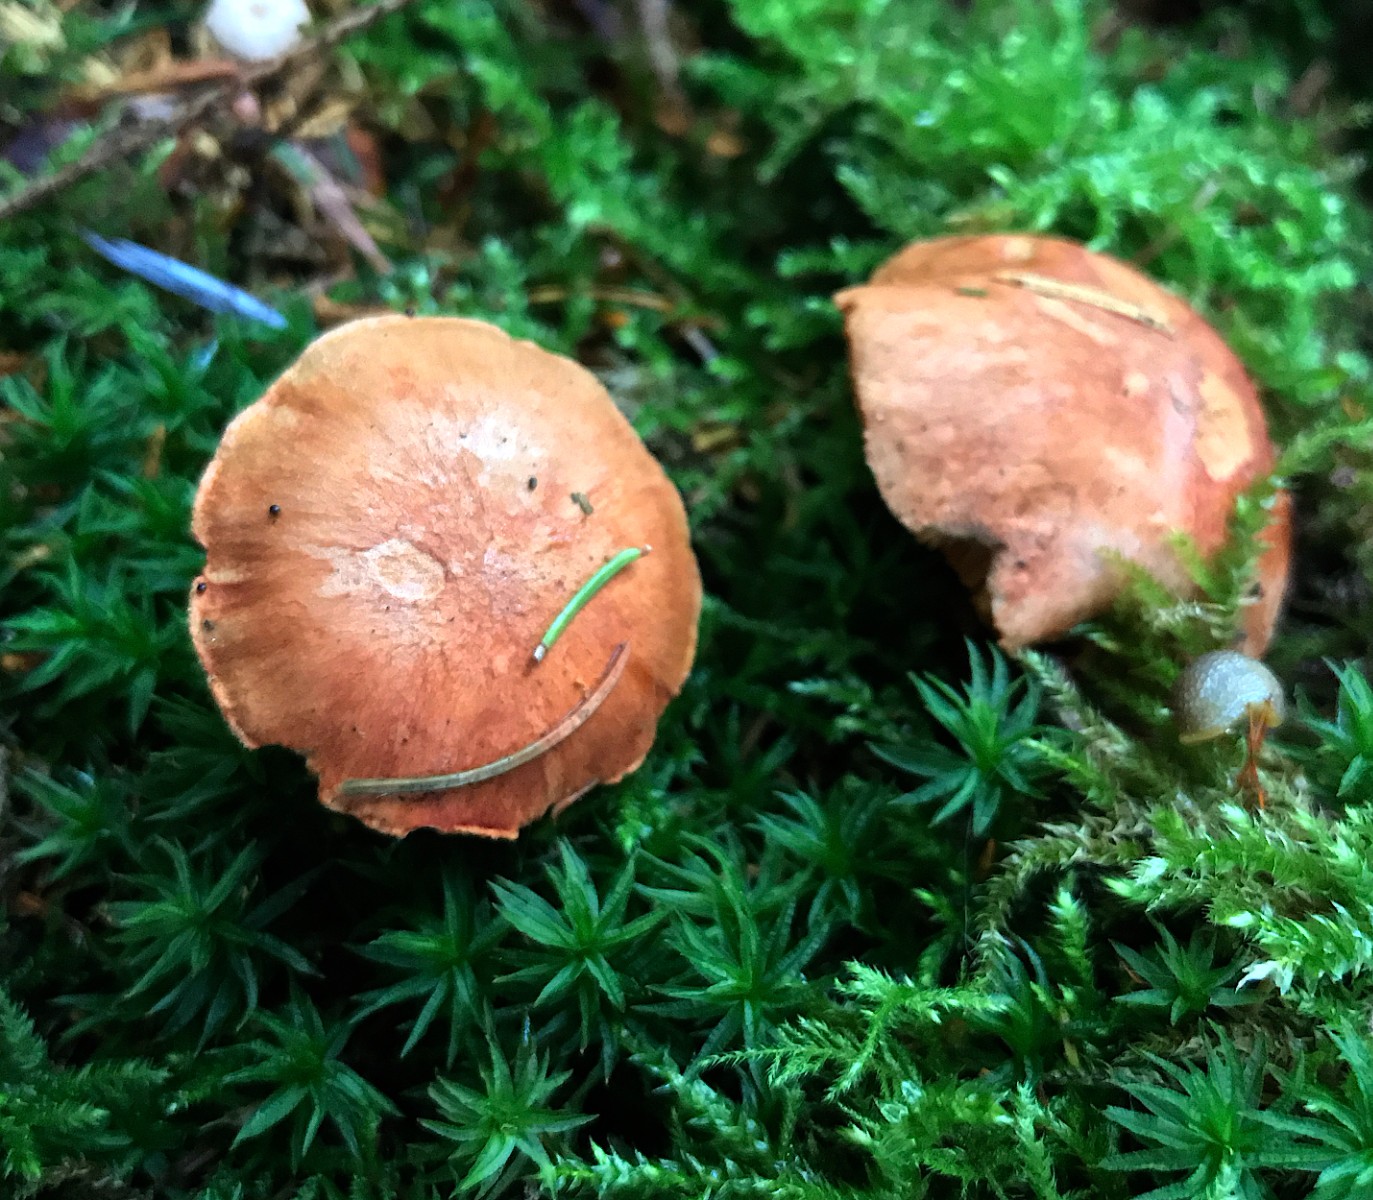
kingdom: Fungi
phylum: Basidiomycota
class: Agaricomycetes
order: Boletales
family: Boletaceae
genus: Chalciporus
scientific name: Chalciporus piperatus
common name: peberrørhat
